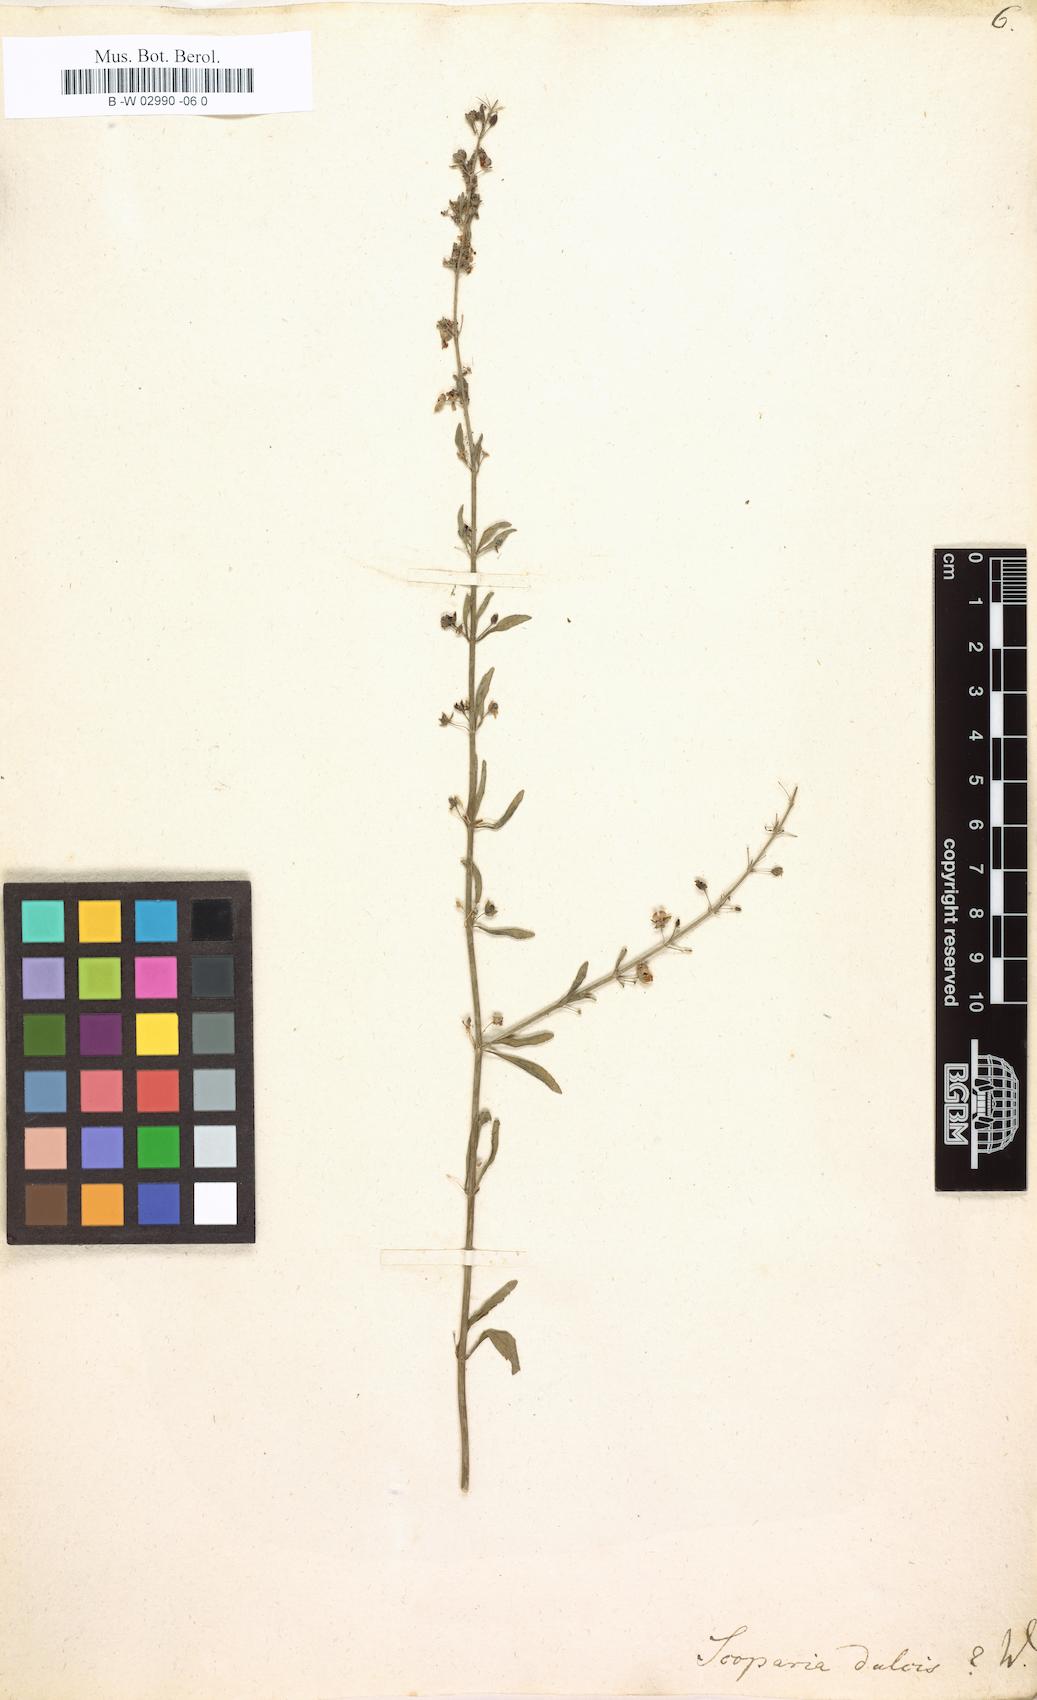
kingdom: Plantae
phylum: Tracheophyta
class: Magnoliopsida
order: Lamiales
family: Plantaginaceae
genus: Scoparia
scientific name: Scoparia dulcis
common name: Scoparia-weed
